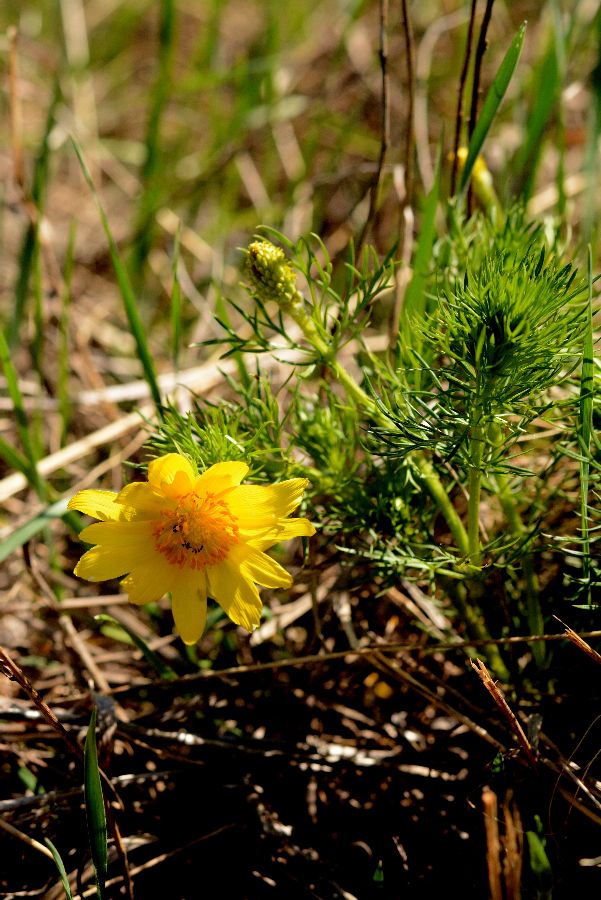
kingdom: Plantae
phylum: Tracheophyta
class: Magnoliopsida
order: Ranunculales
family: Ranunculaceae
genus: Adonis
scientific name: Adonis vernalis
